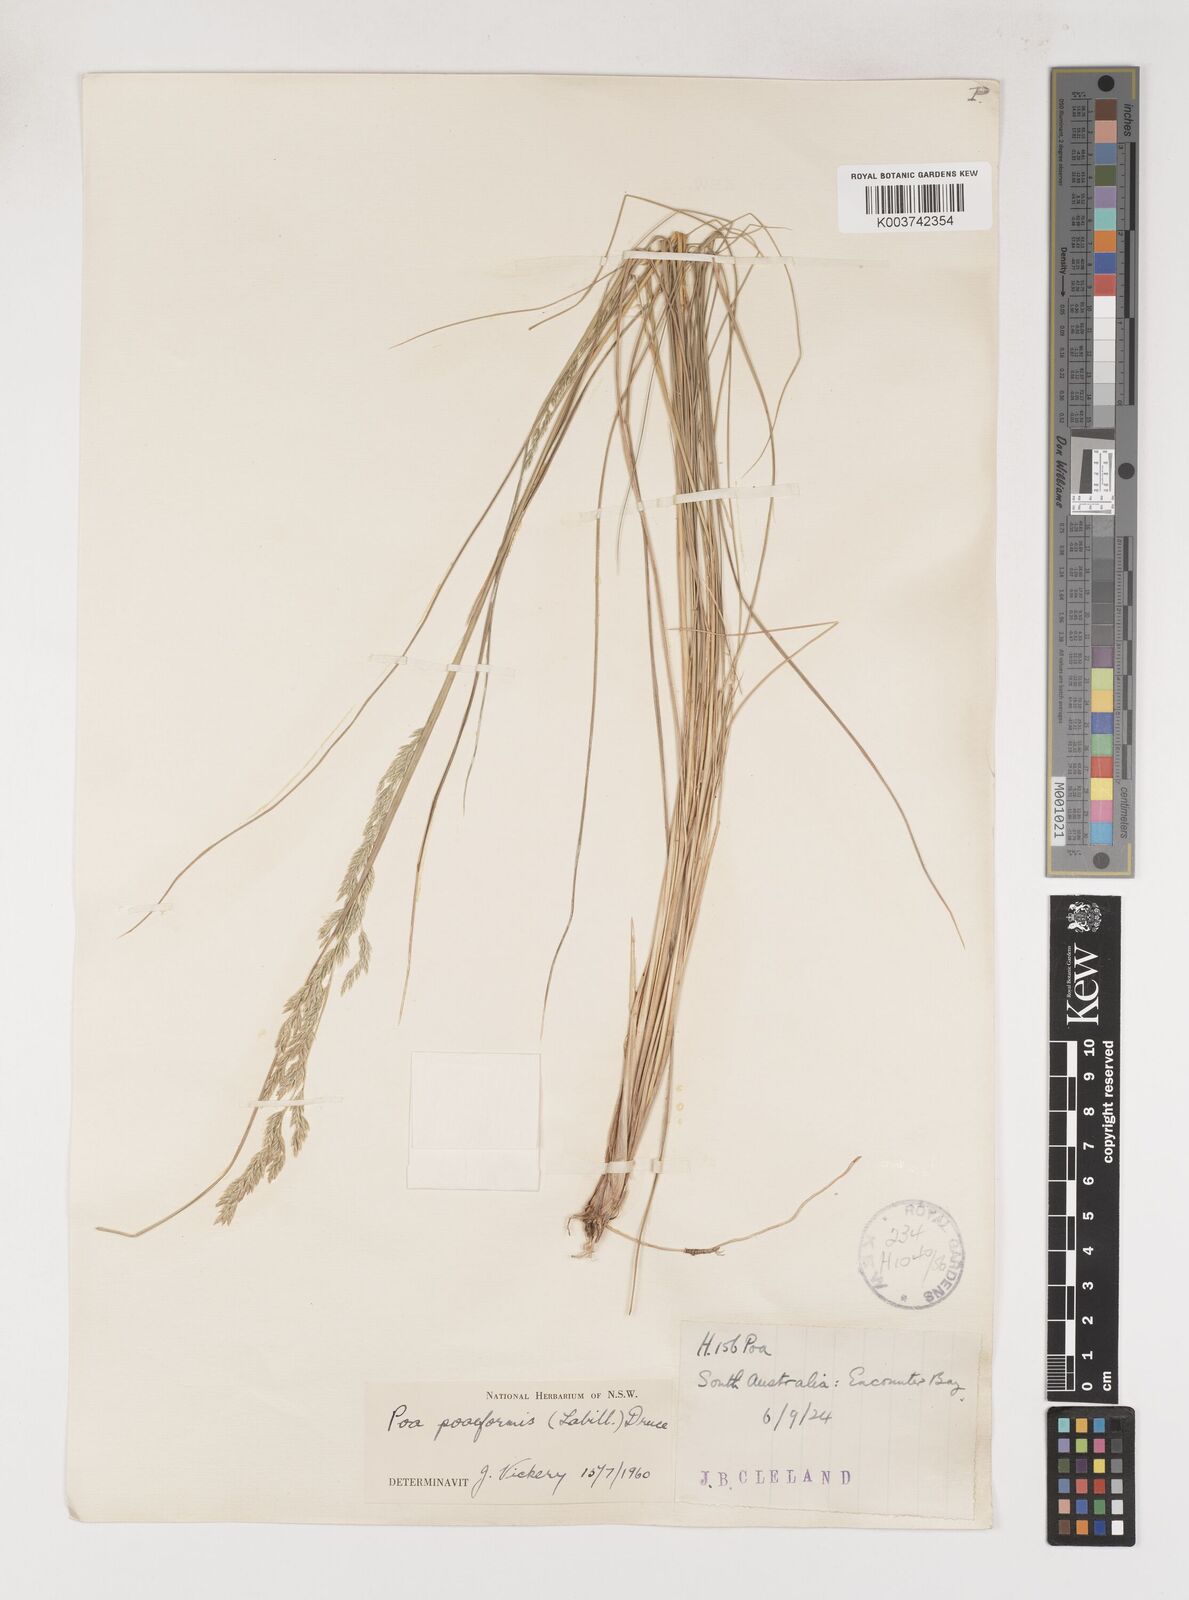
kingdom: Plantae
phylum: Tracheophyta
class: Liliopsida
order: Poales
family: Poaceae
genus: Poa
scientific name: Poa poiformis
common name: Tussock poa
